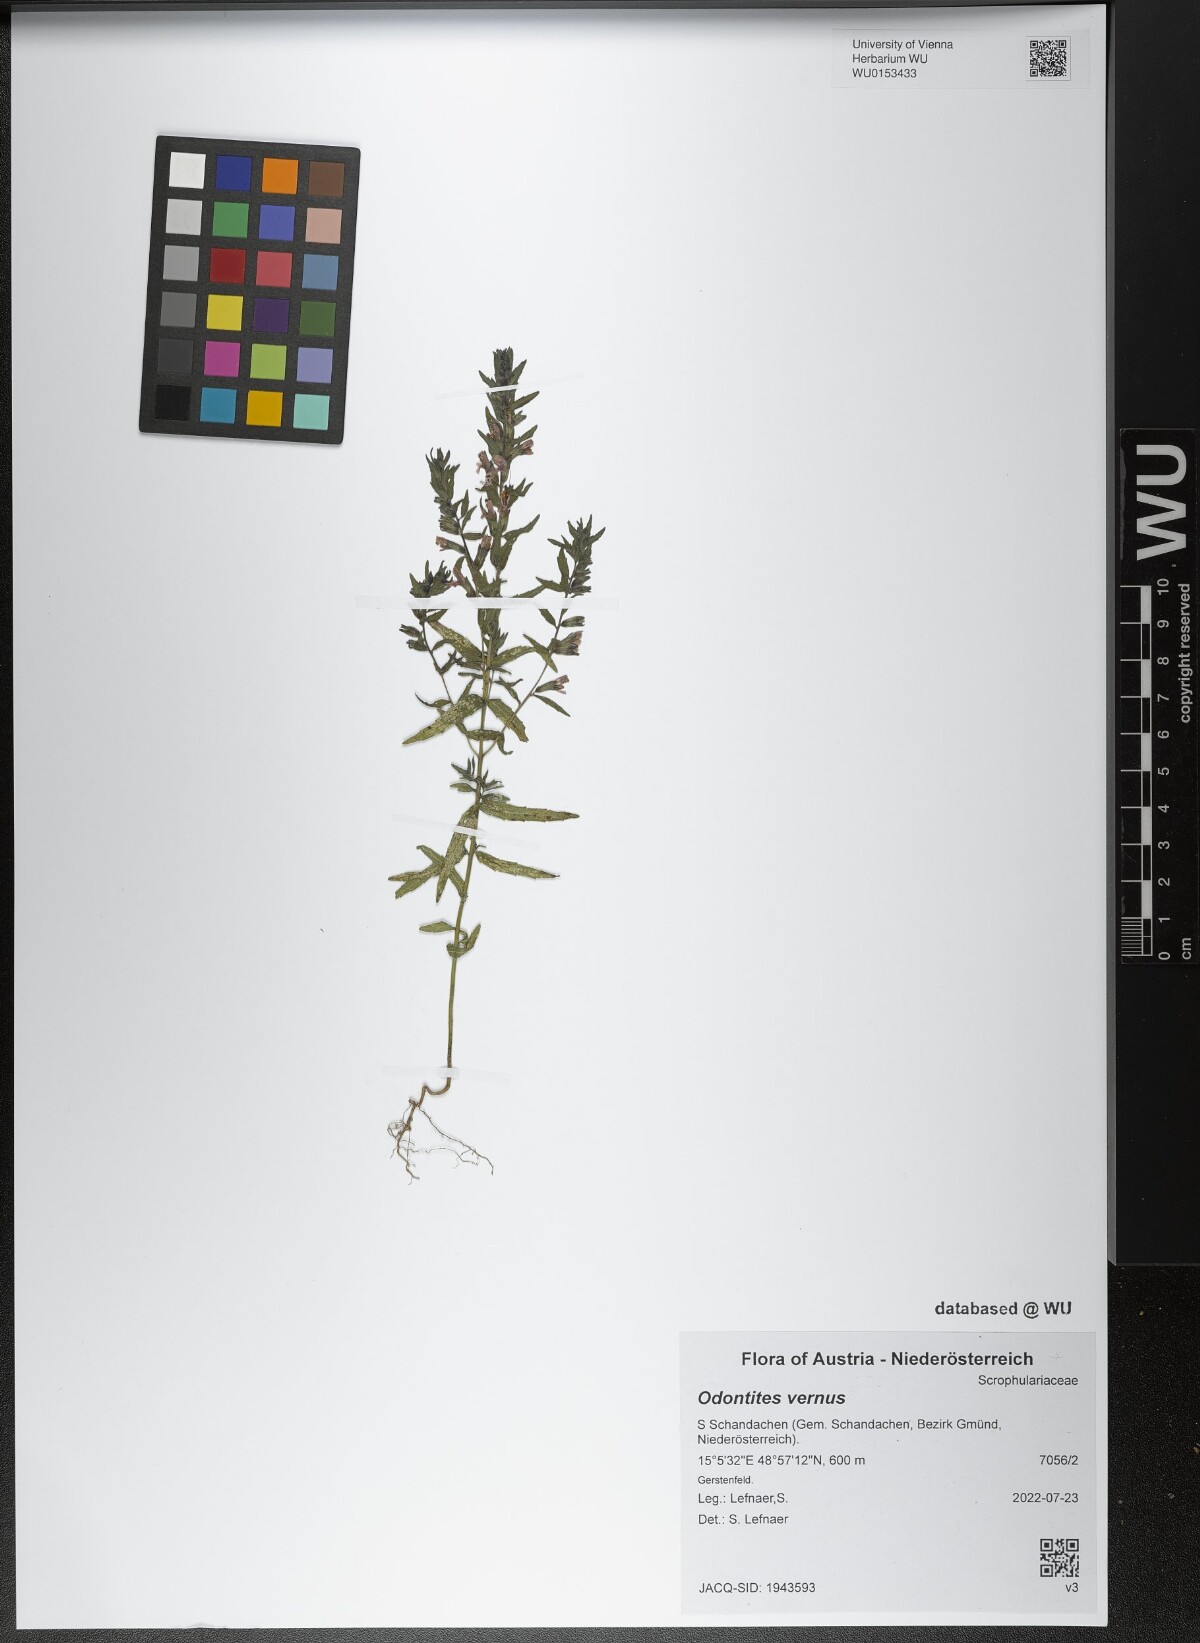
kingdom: Plantae
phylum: Tracheophyta
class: Magnoliopsida
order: Lamiales
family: Orobanchaceae
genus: Odontites
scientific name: Odontites vernus
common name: Red bartsia
